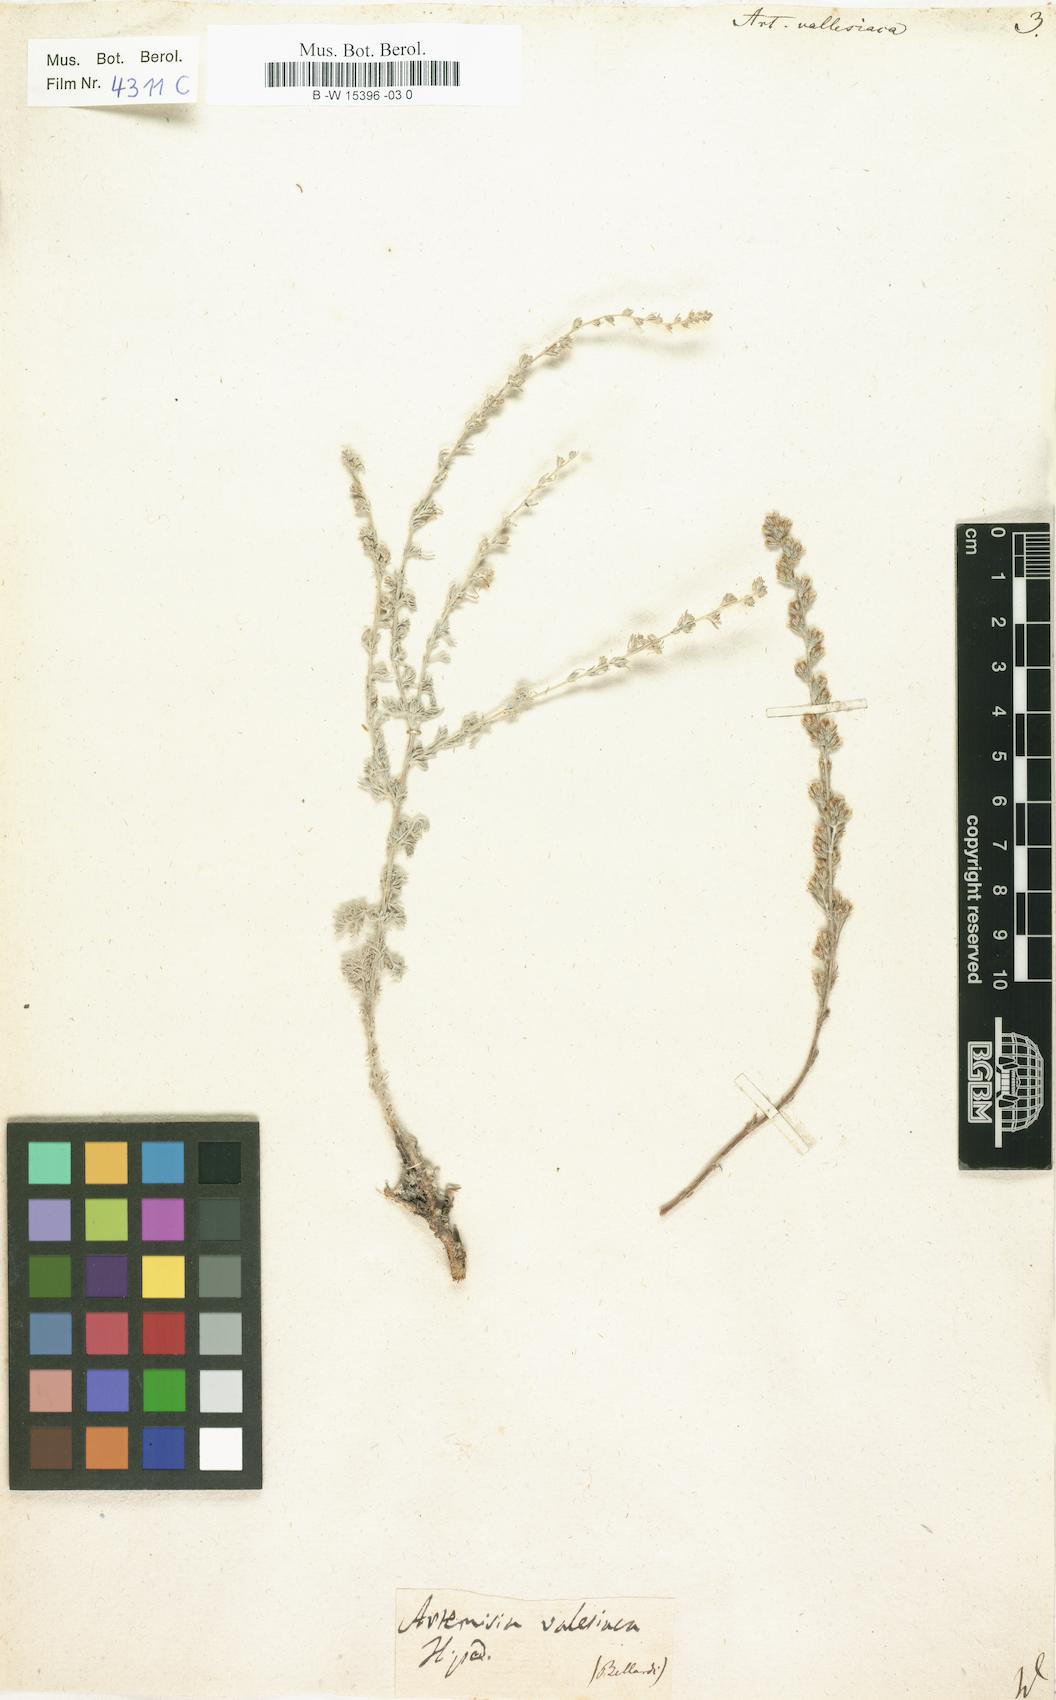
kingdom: Plantae
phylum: Tracheophyta
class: Magnoliopsida
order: Asterales
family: Asteraceae
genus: Artemisia
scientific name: Artemisia vallesiaca
